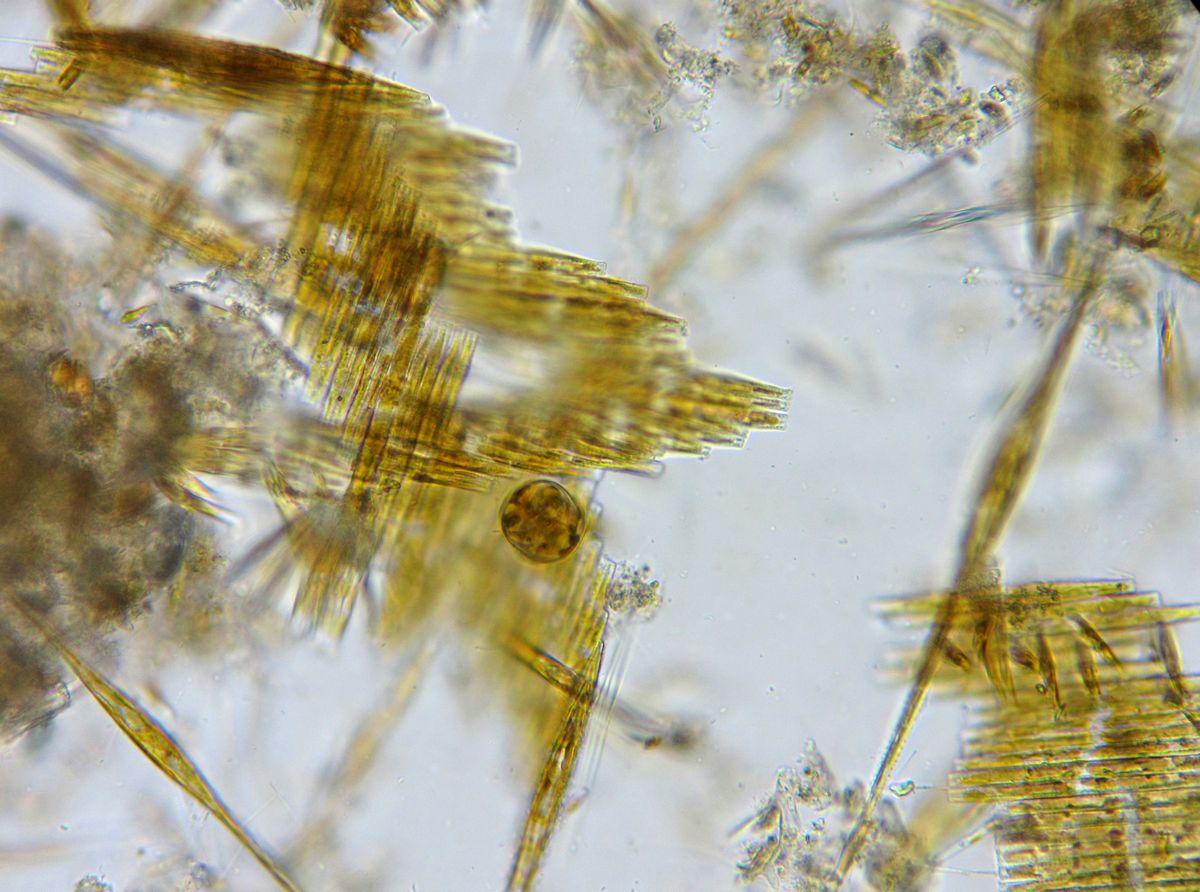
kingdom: Chromista
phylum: Ochrophyta
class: Bacillariophyceae
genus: Vibrio
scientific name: Vibrio paxillifer
